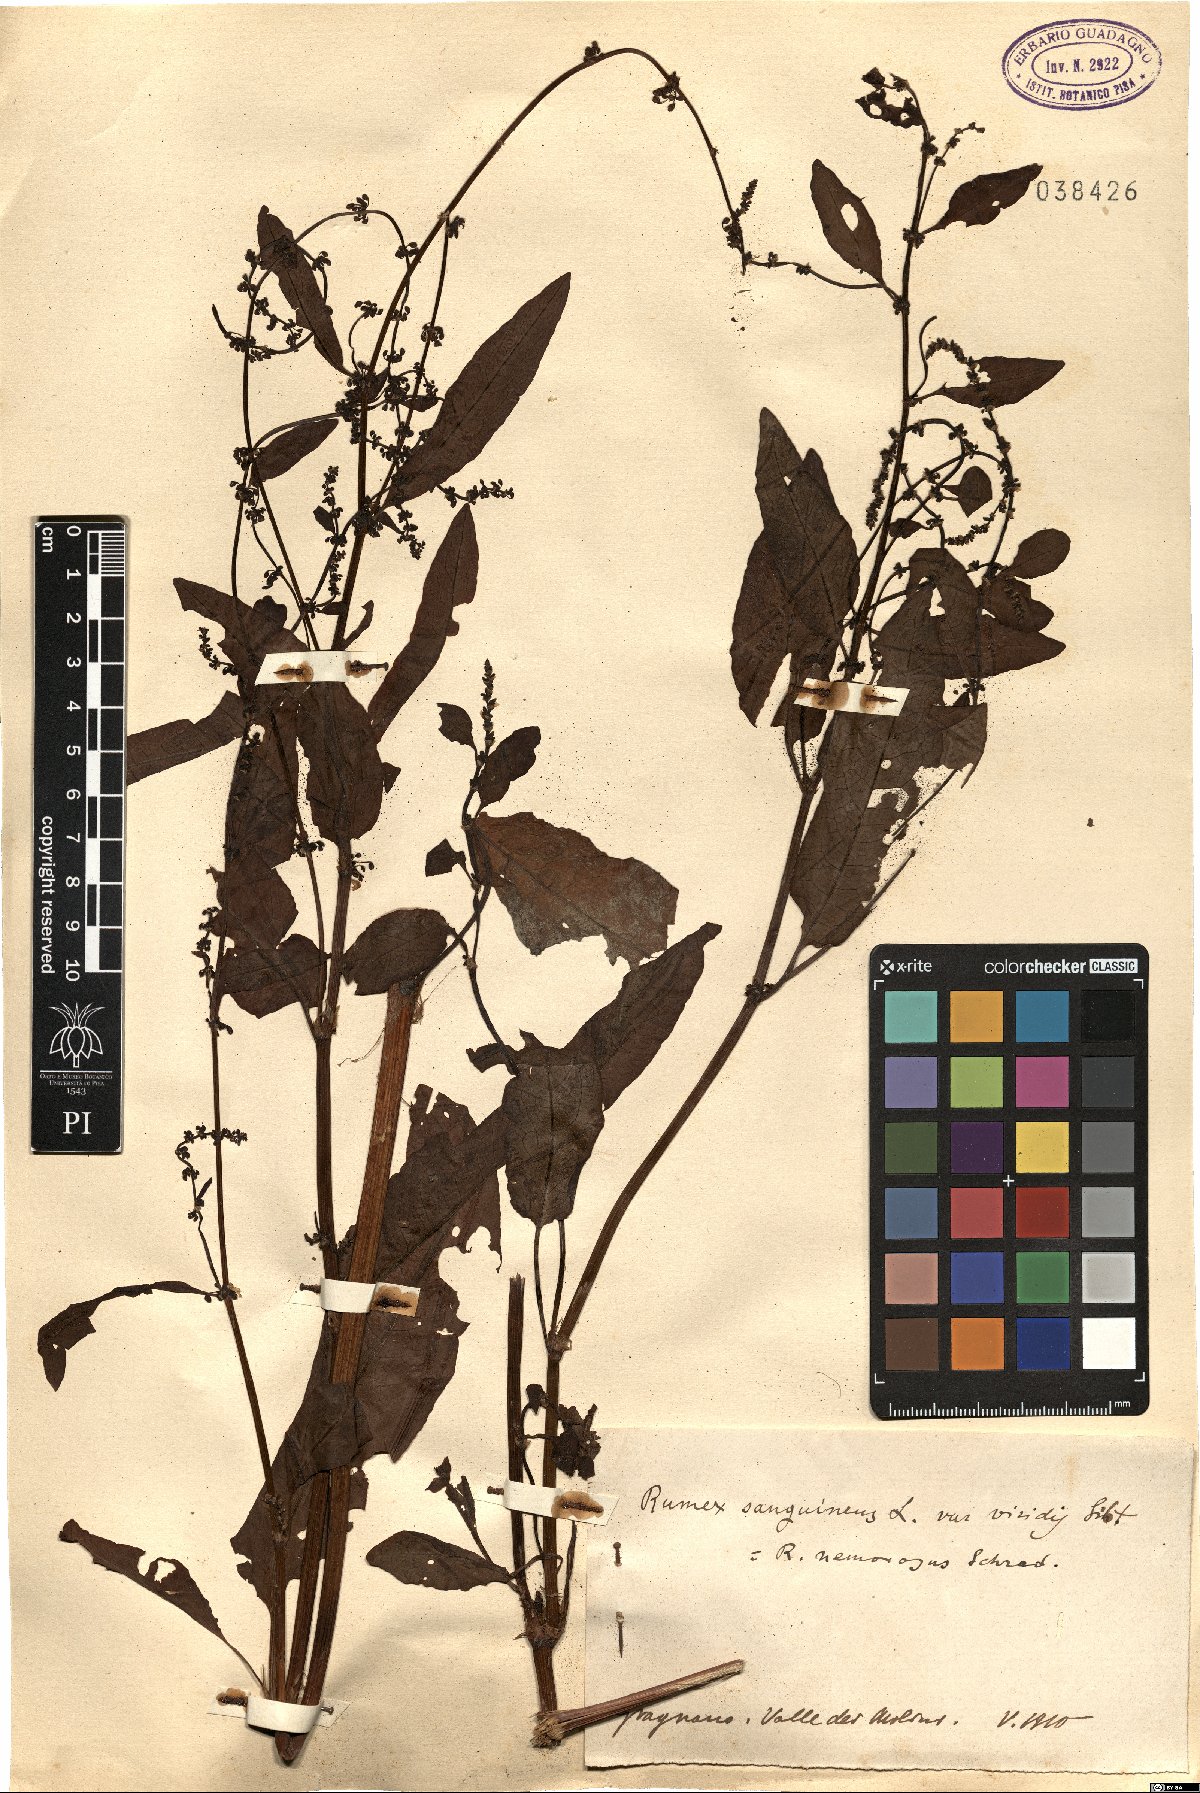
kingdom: Plantae
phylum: Tracheophyta
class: Magnoliopsida
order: Caryophyllales
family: Polygonaceae
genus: Rumex
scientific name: Rumex sanguineus
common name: Wood dock
